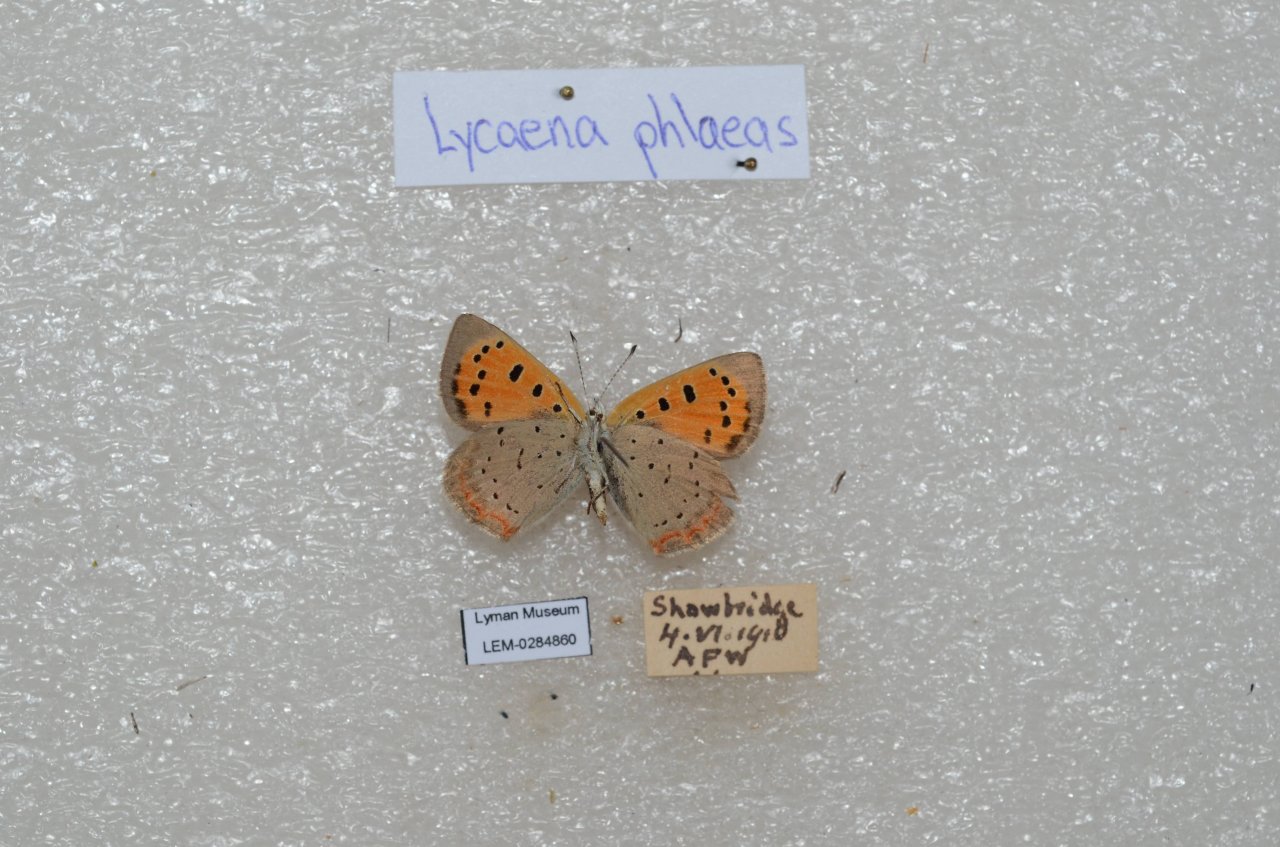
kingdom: Animalia
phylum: Arthropoda
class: Insecta
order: Lepidoptera
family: Lycaenidae
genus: Lycaena
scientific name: Lycaena phlaeas
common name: American Copper
